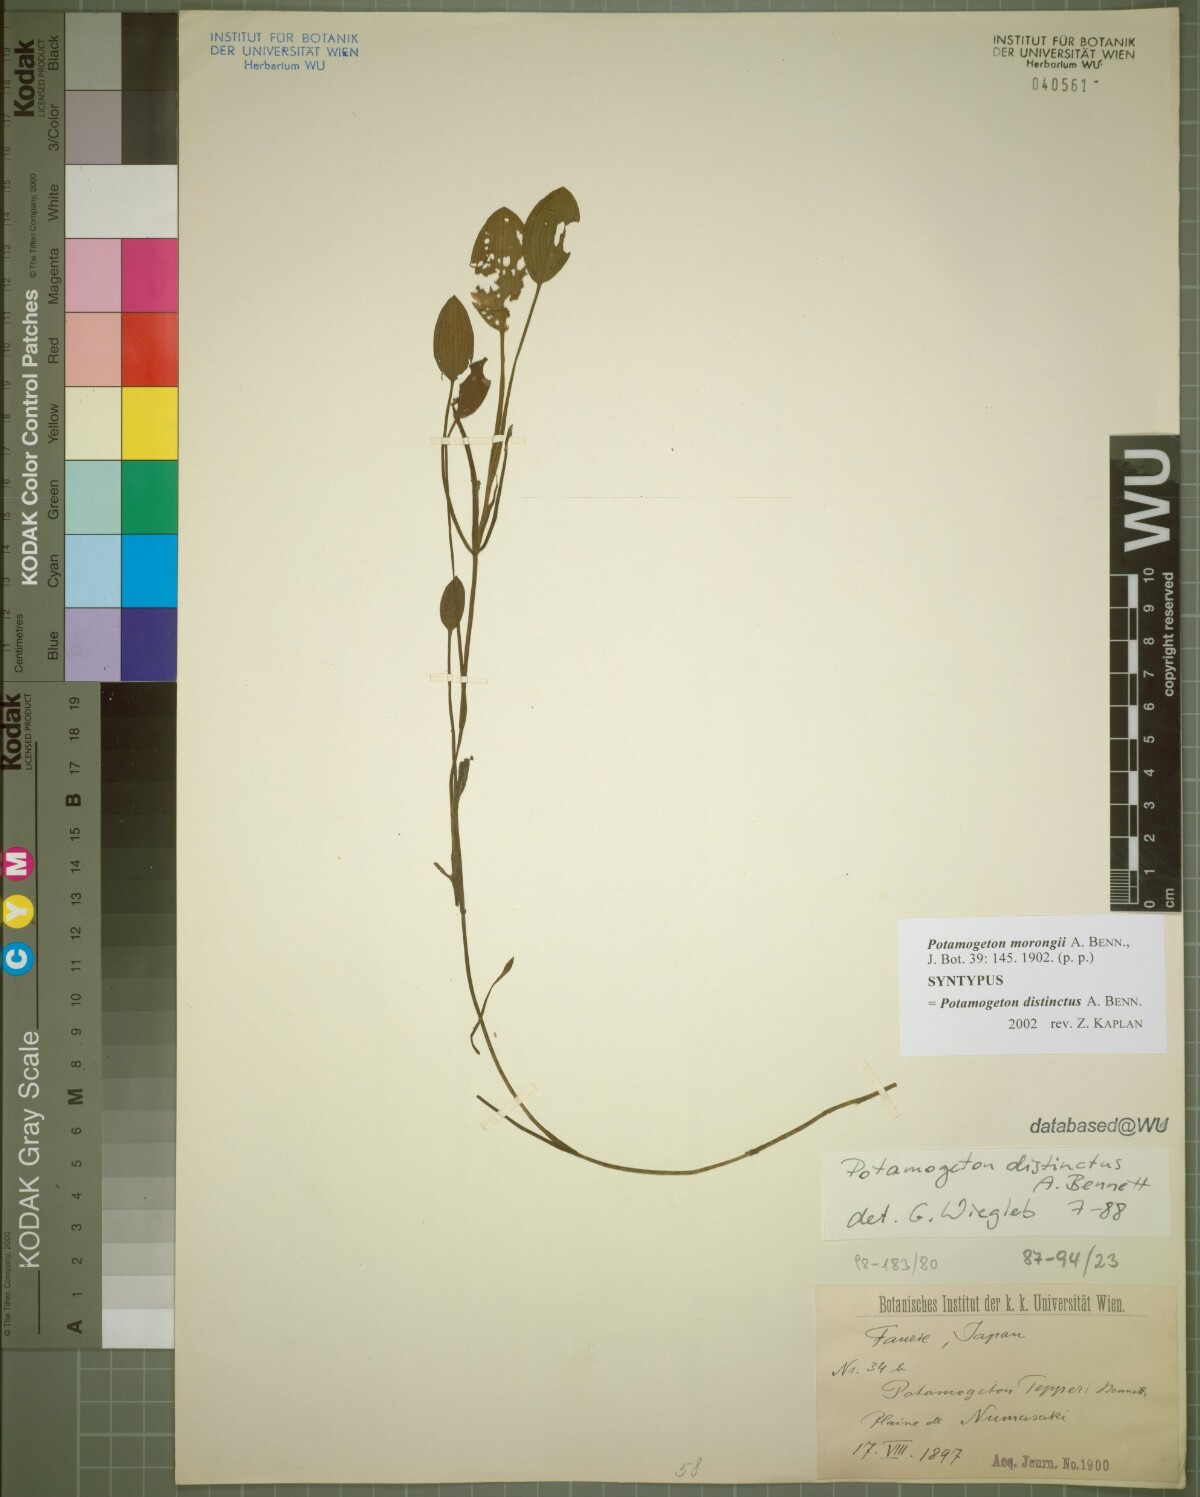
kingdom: Plantae
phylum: Tracheophyta
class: Liliopsida
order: Alismatales
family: Potamogetonaceae
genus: Potamogeton
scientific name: Potamogeton natans
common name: Broad-leaved pondweed
